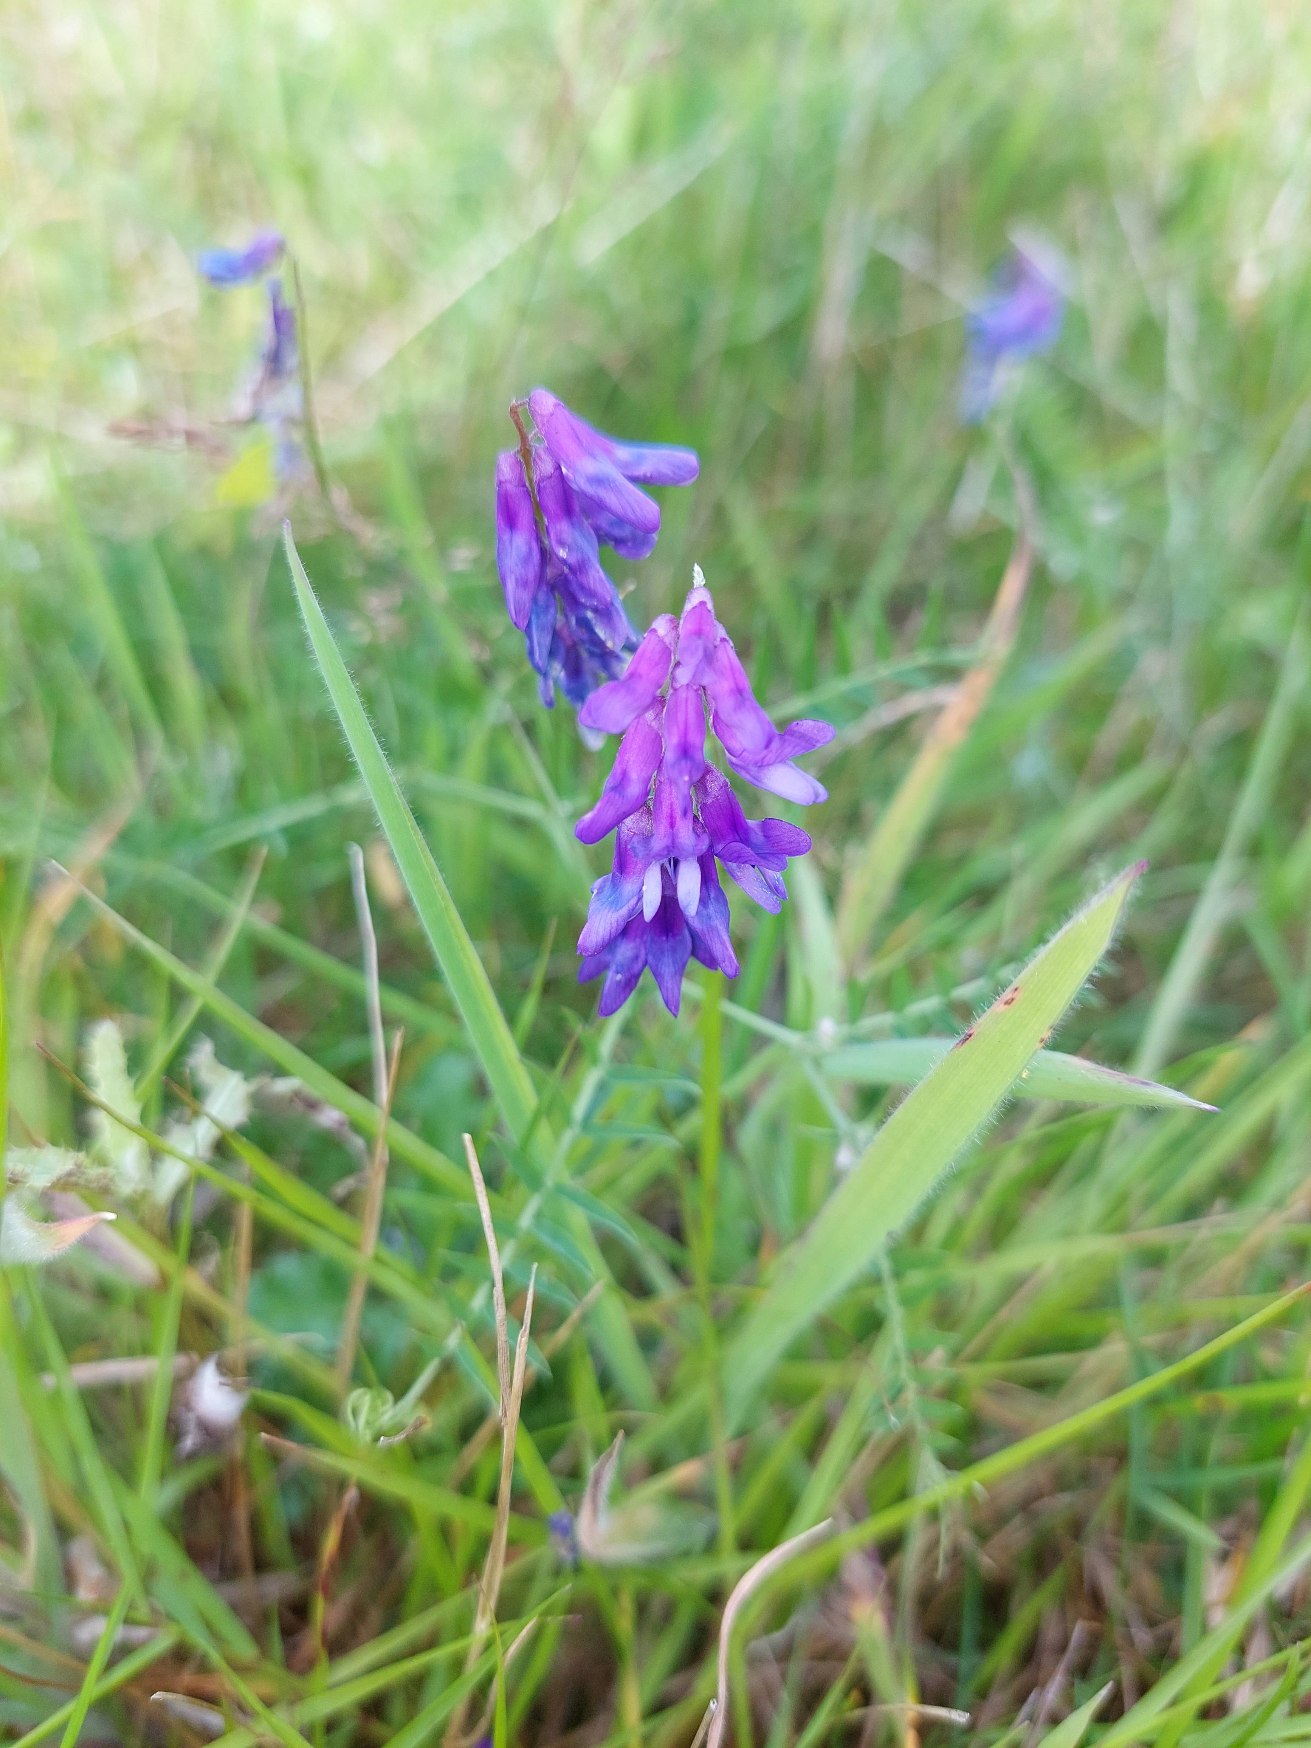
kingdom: Plantae
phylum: Tracheophyta
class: Magnoliopsida
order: Fabales
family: Fabaceae
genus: Vicia
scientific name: Vicia cracca
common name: Muse-vikke
